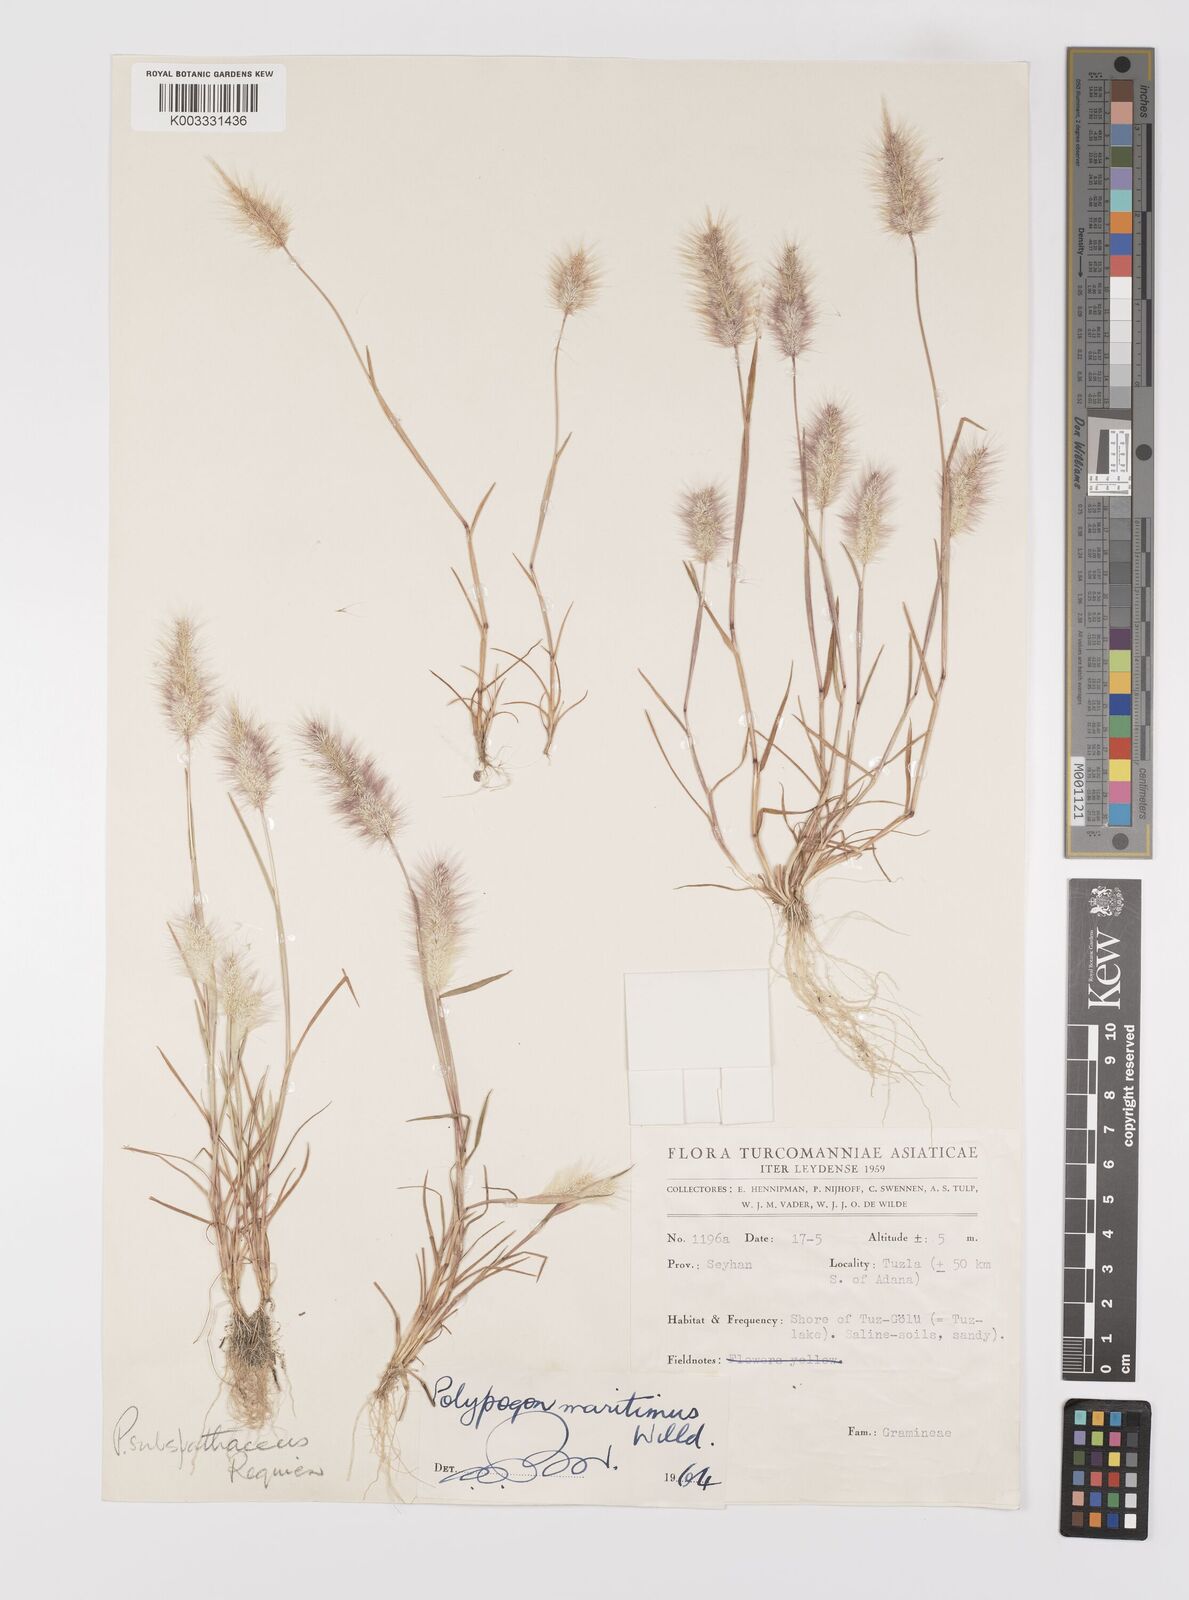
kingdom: Plantae
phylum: Tracheophyta
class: Liliopsida
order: Poales
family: Poaceae
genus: Polypogon
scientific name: Polypogon maritimus
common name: Mediterranean rabbitsfoot grass
